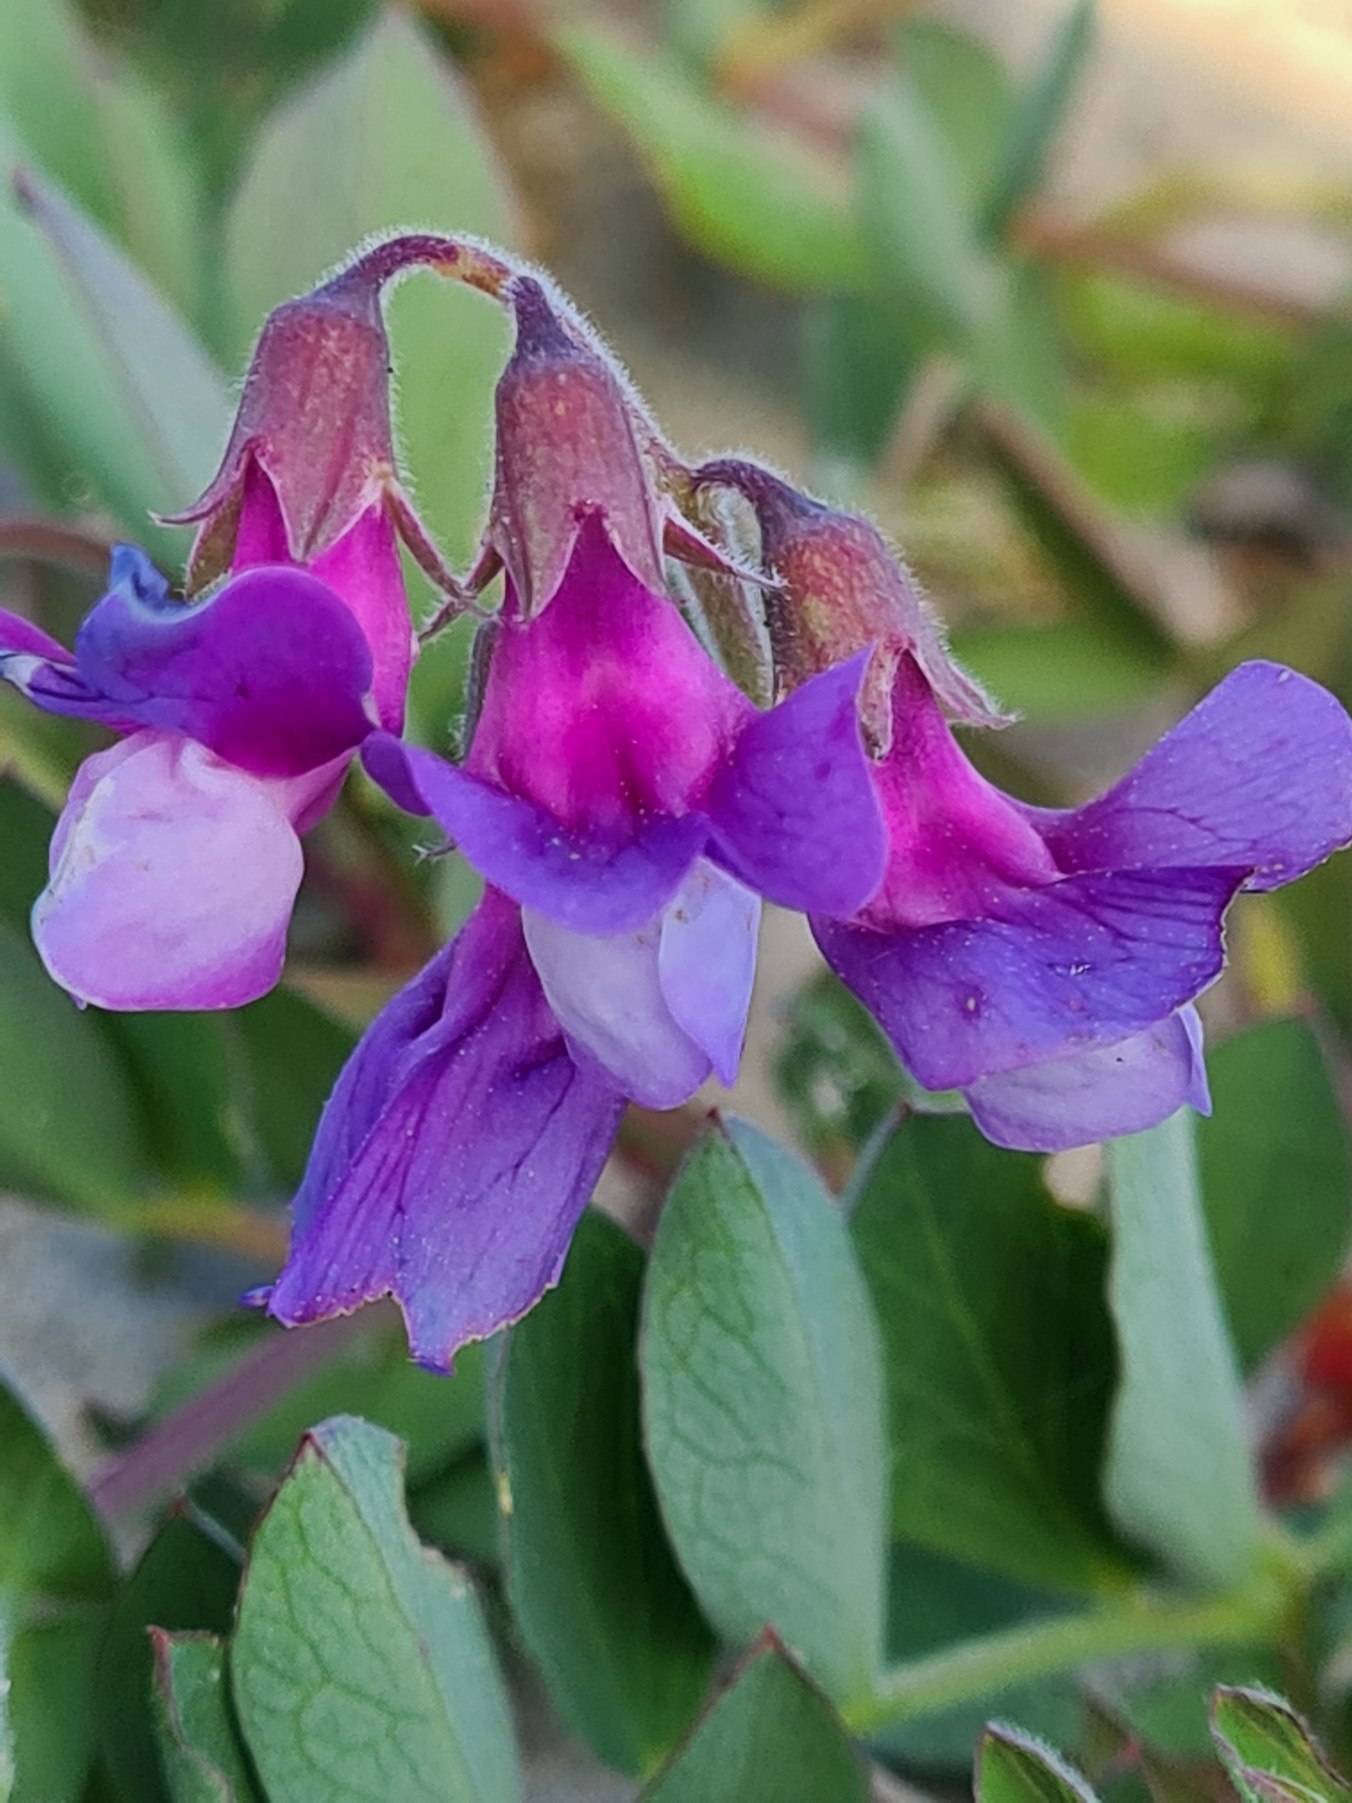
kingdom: Plantae
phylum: Tracheophyta
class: Magnoliopsida
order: Fabales
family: Fabaceae
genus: Lathyrus
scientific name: Lathyrus japonicus
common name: Strand-fladbælg
